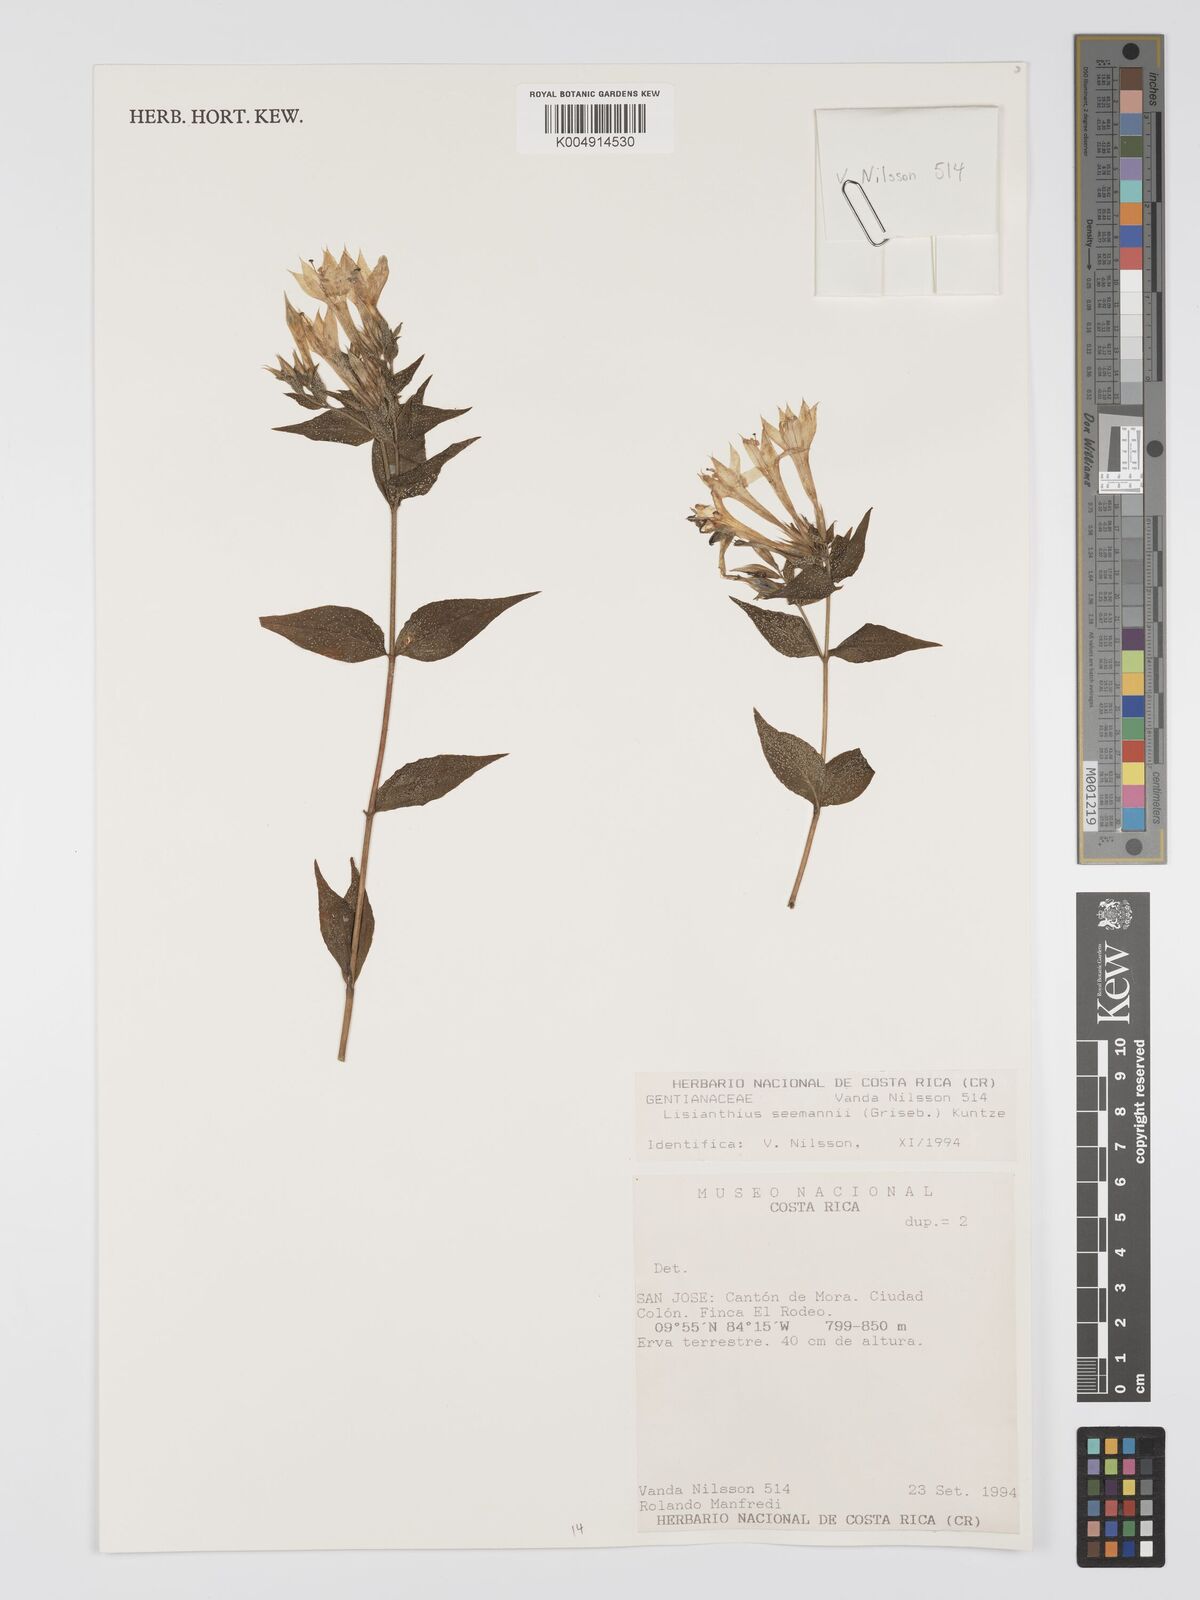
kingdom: Plantae
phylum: Tracheophyta
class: Magnoliopsida
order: Gentianales
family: Gentianaceae
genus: Lisianthus
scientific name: Lisianthus seemannii
